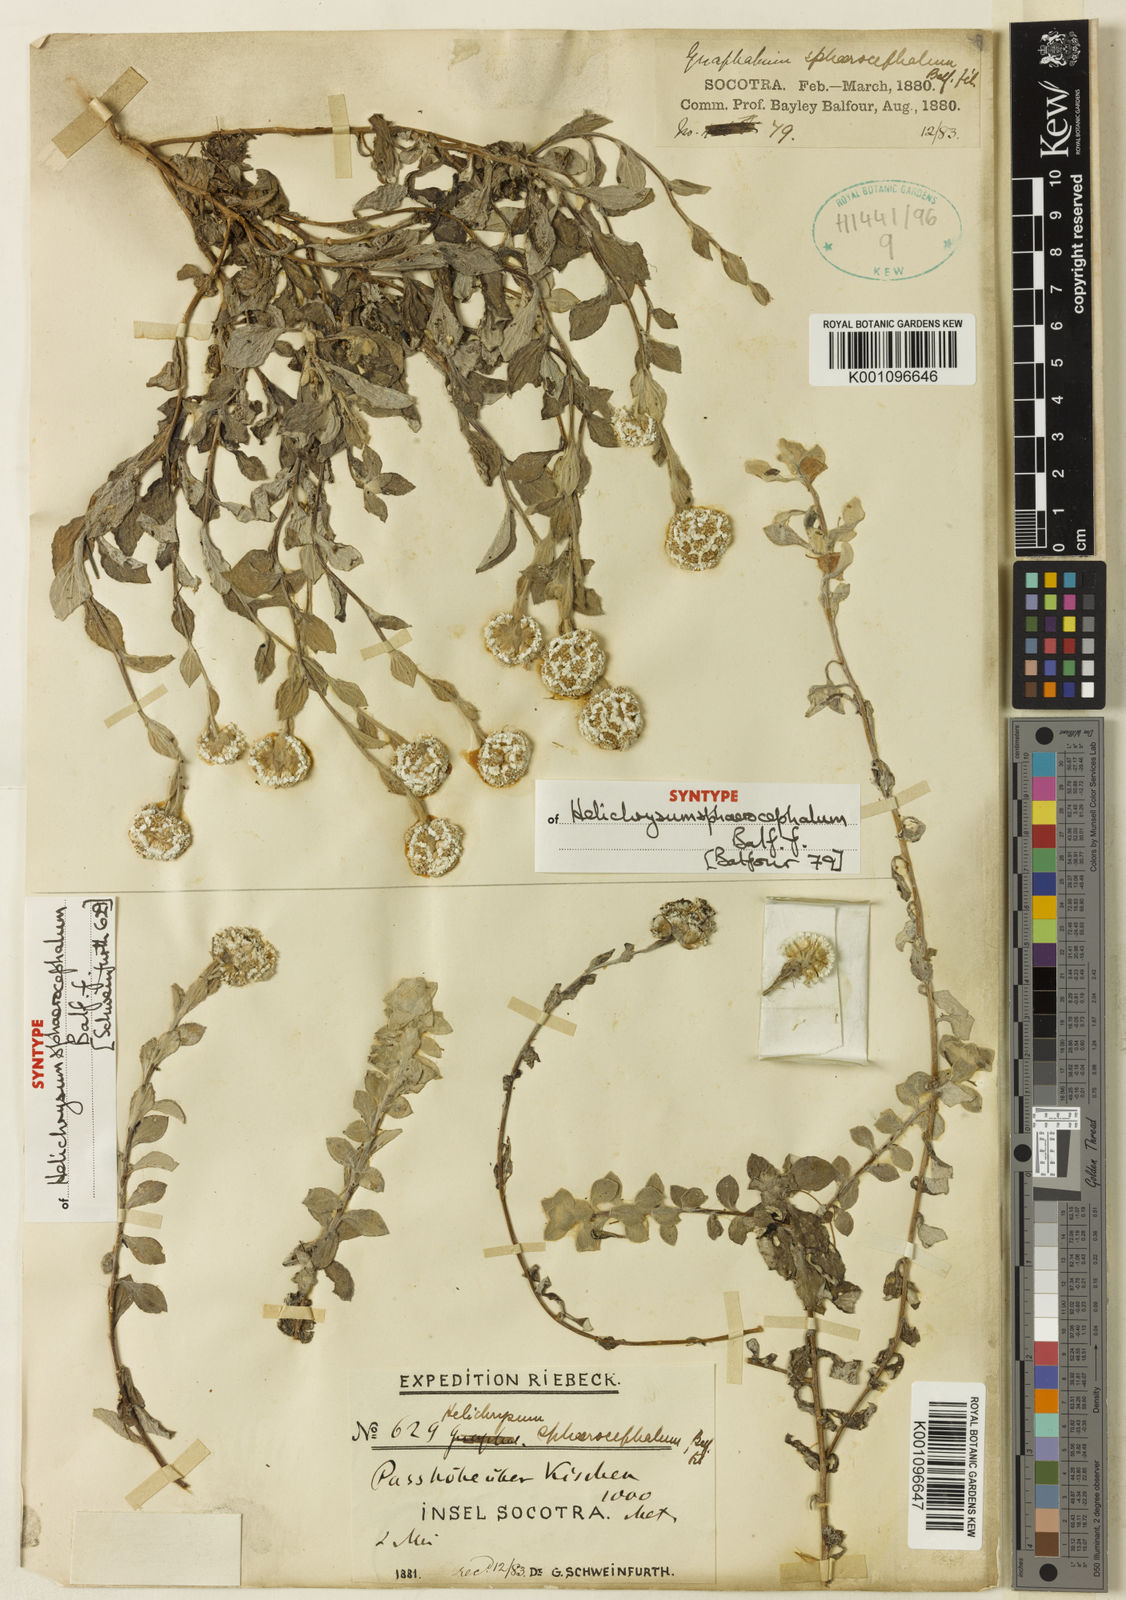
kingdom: Plantae
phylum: Tracheophyta
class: Magnoliopsida
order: Asterales
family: Asteraceae
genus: Libinhania
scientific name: Libinhania sphaerocephala
